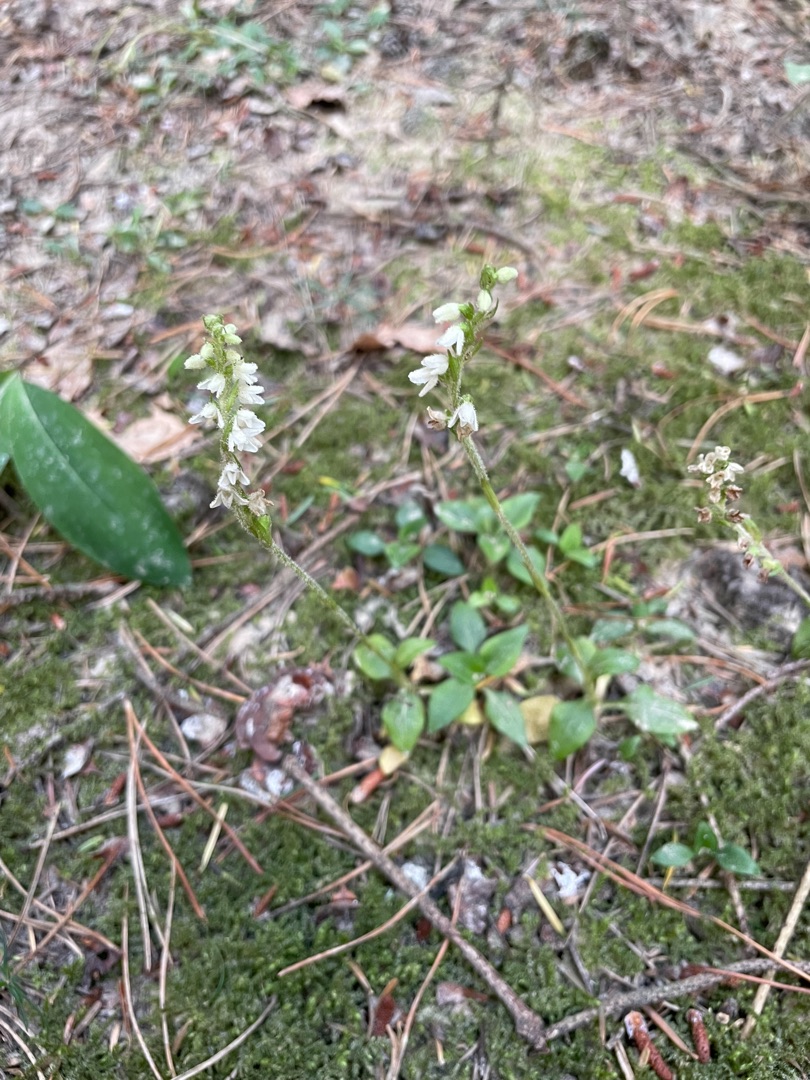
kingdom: Plantae
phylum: Tracheophyta
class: Liliopsida
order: Asparagales
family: Orchidaceae
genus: Goodyera
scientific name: Goodyera repens
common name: Knærod
